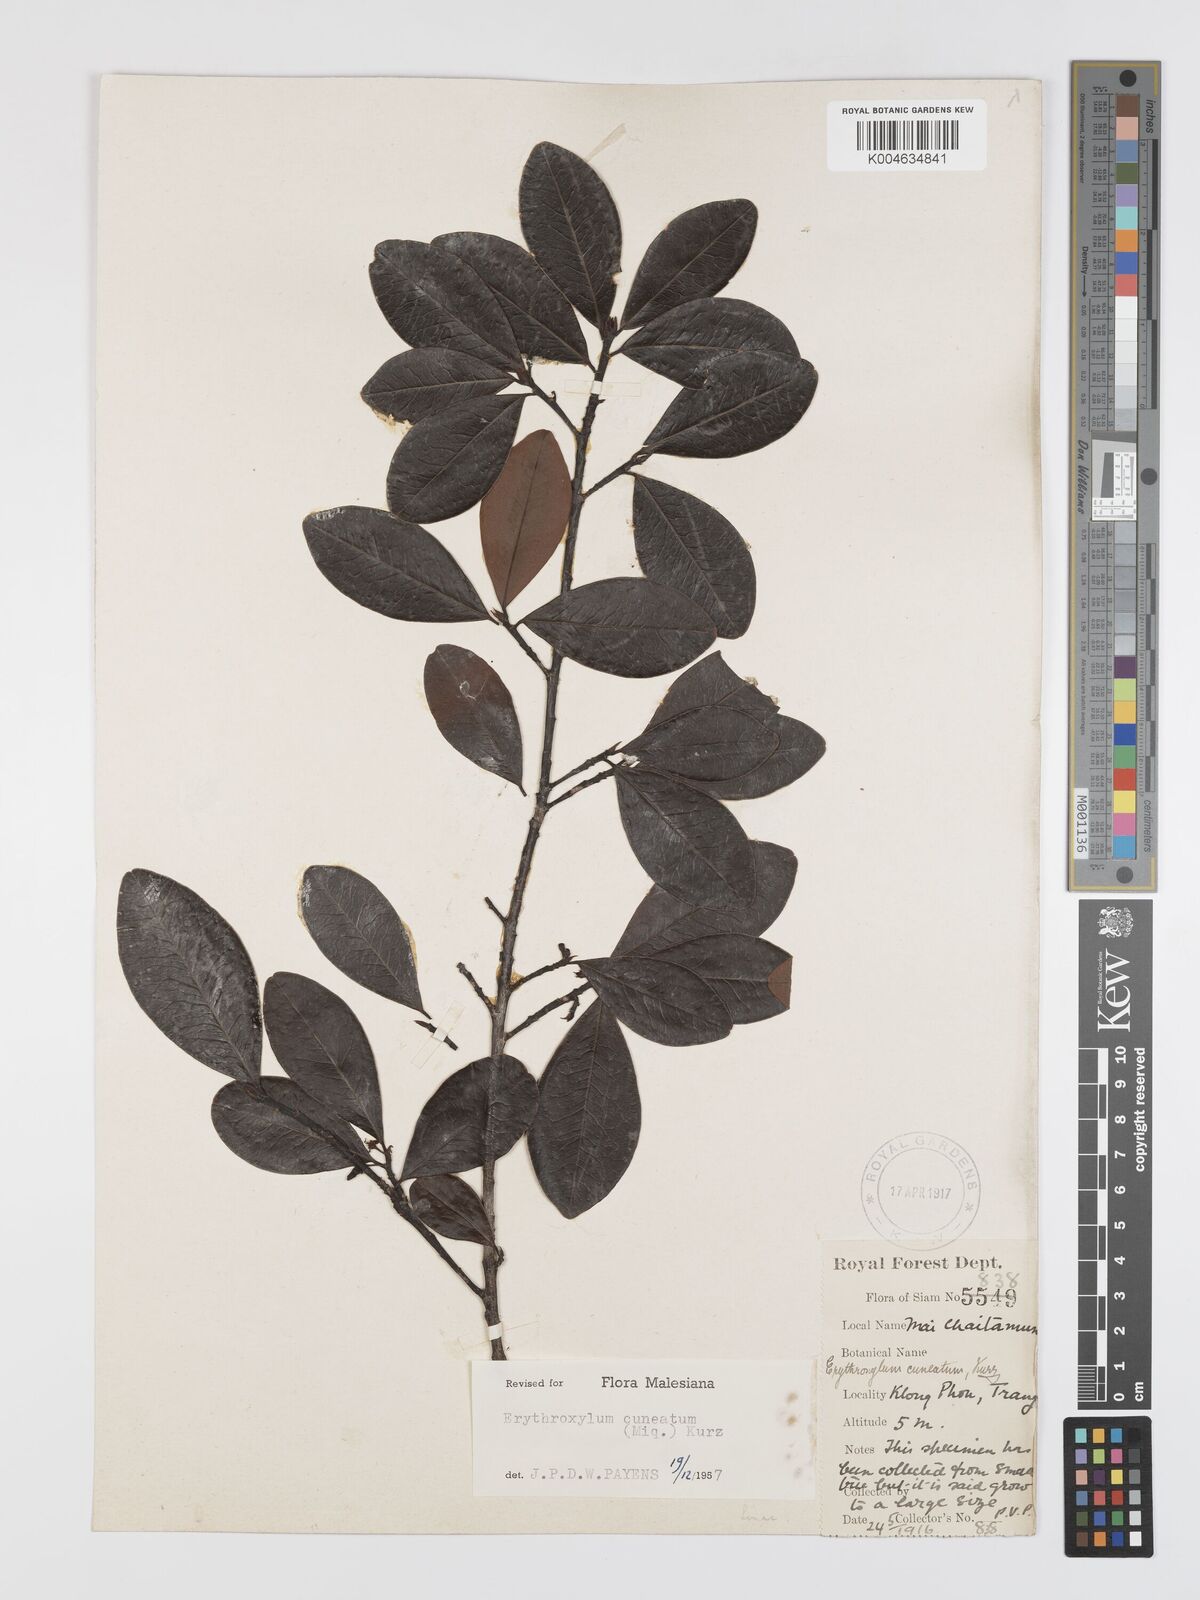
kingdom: Plantae
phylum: Tracheophyta
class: Magnoliopsida
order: Malpighiales
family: Erythroxylaceae
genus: Erythroxylum
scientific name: Erythroxylum cuneatum
